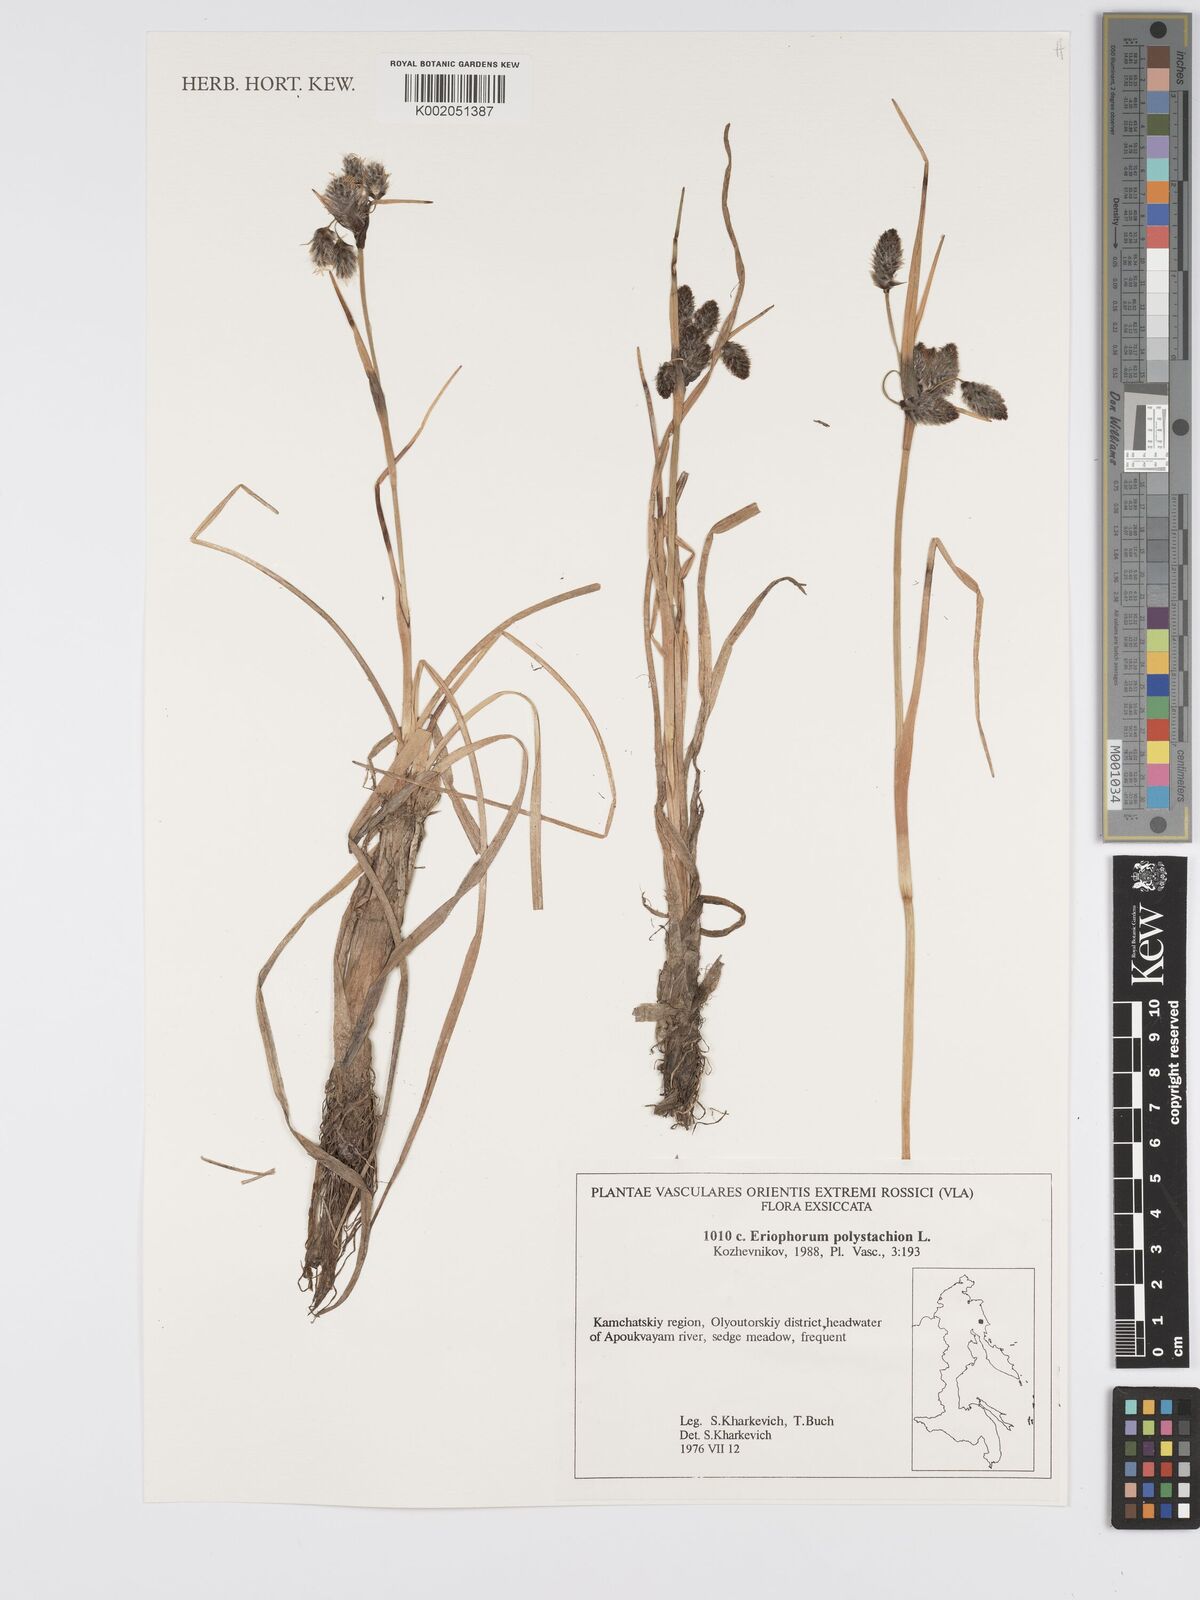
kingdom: Plantae
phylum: Tracheophyta
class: Liliopsida
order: Poales
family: Cyperaceae
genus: Eriophorum
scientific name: Eriophorum angustifolium
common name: Common cottongrass
